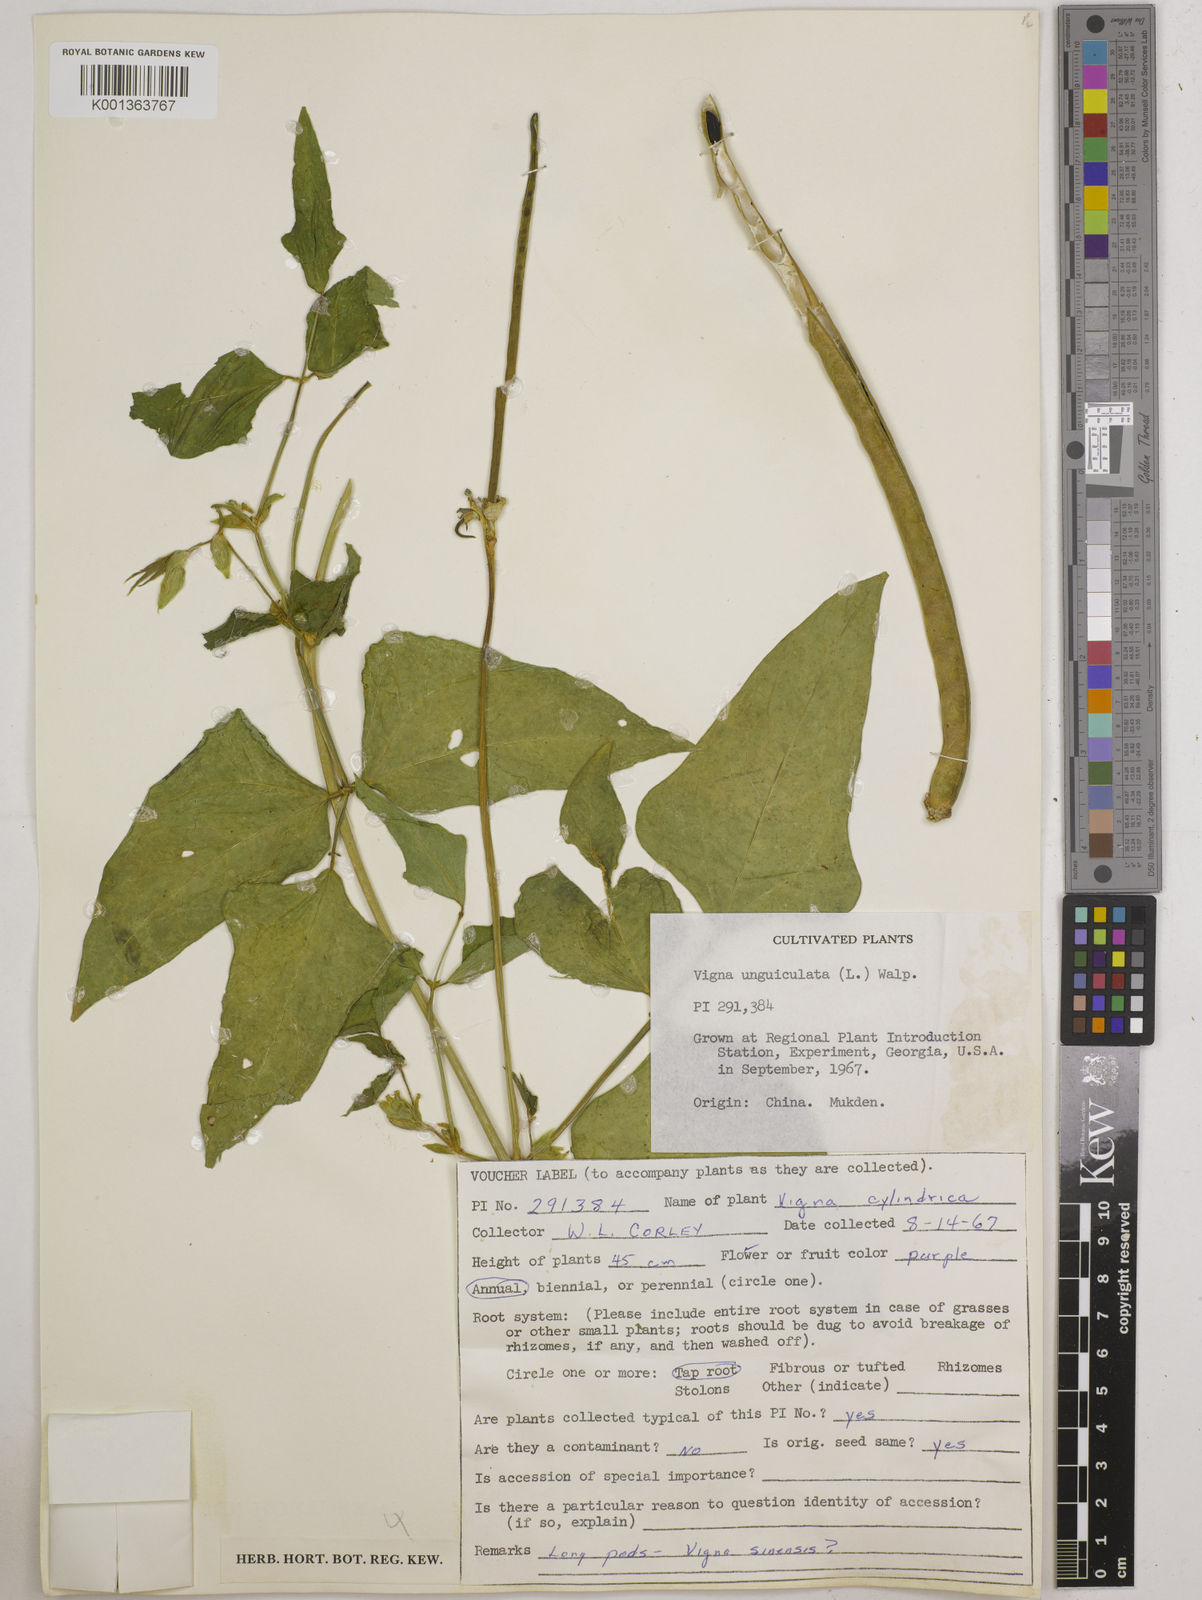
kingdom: Plantae
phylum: Tracheophyta
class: Magnoliopsida
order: Fabales
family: Fabaceae
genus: Vigna
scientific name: Vigna unguiculata
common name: Cowpea
